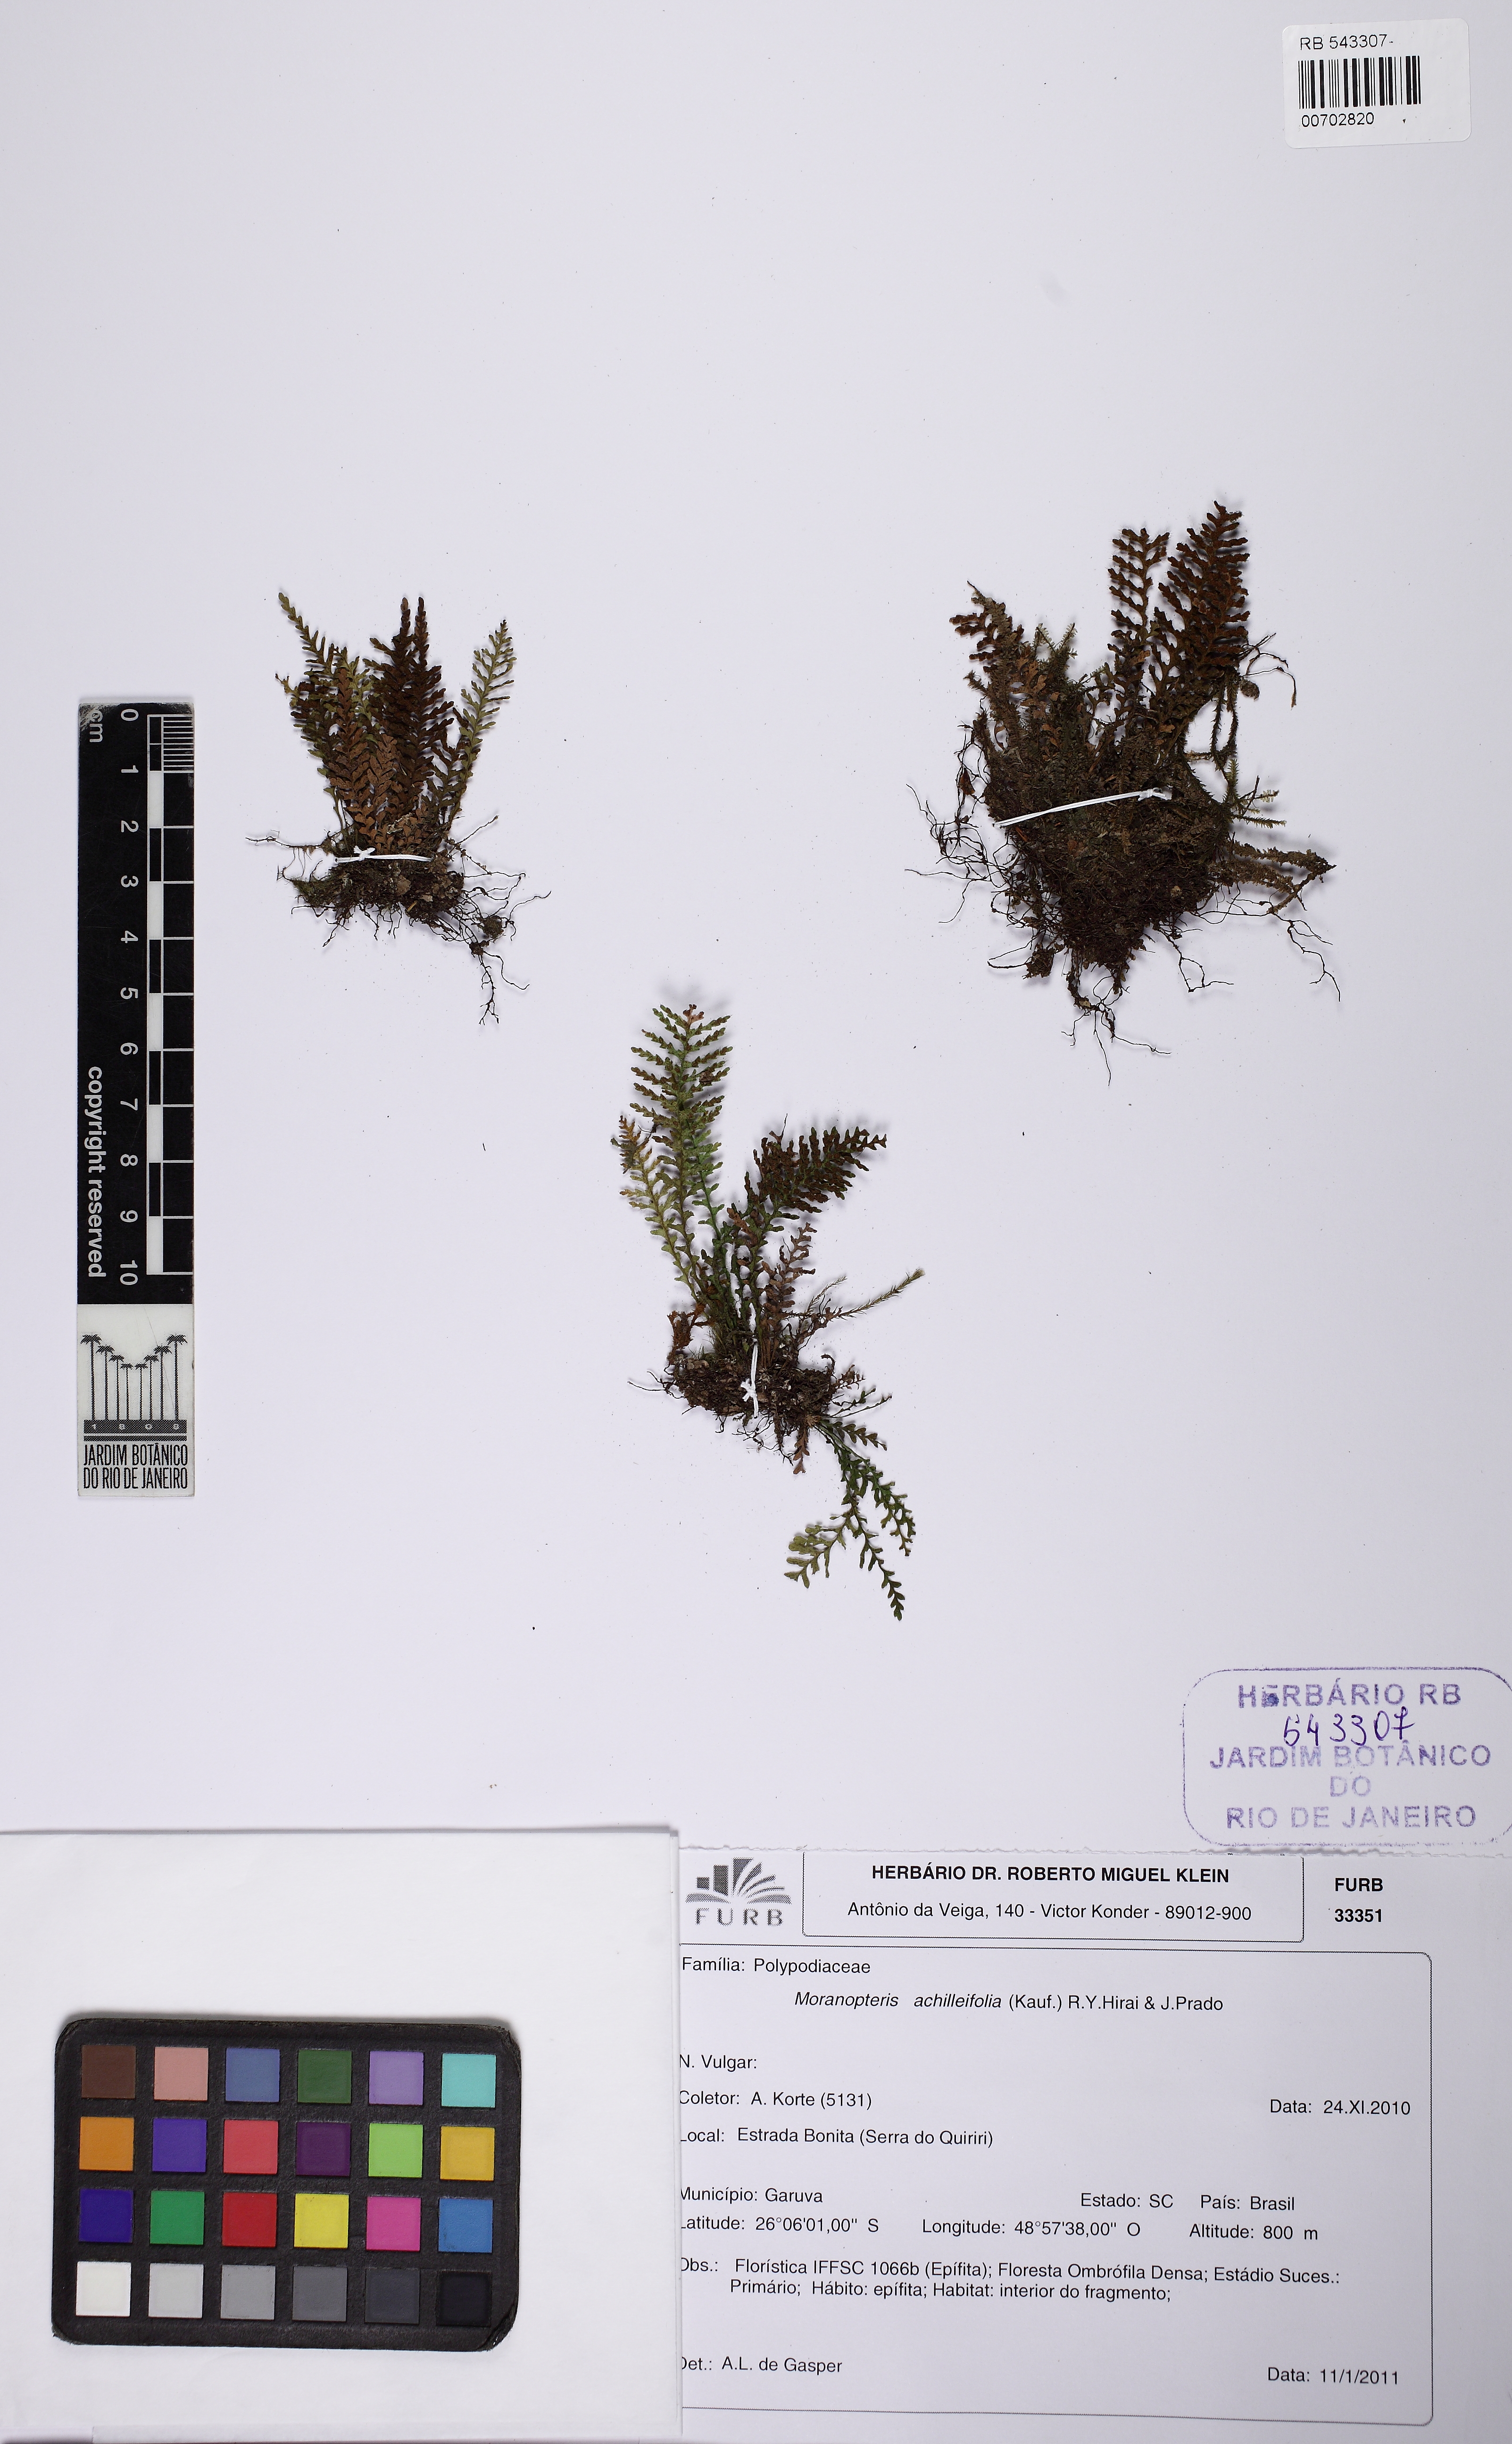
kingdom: Plantae
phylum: Tracheophyta
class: Polypodiopsida
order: Polypodiales
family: Polypodiaceae
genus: Moranopteris
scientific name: Moranopteris achilleifolia
